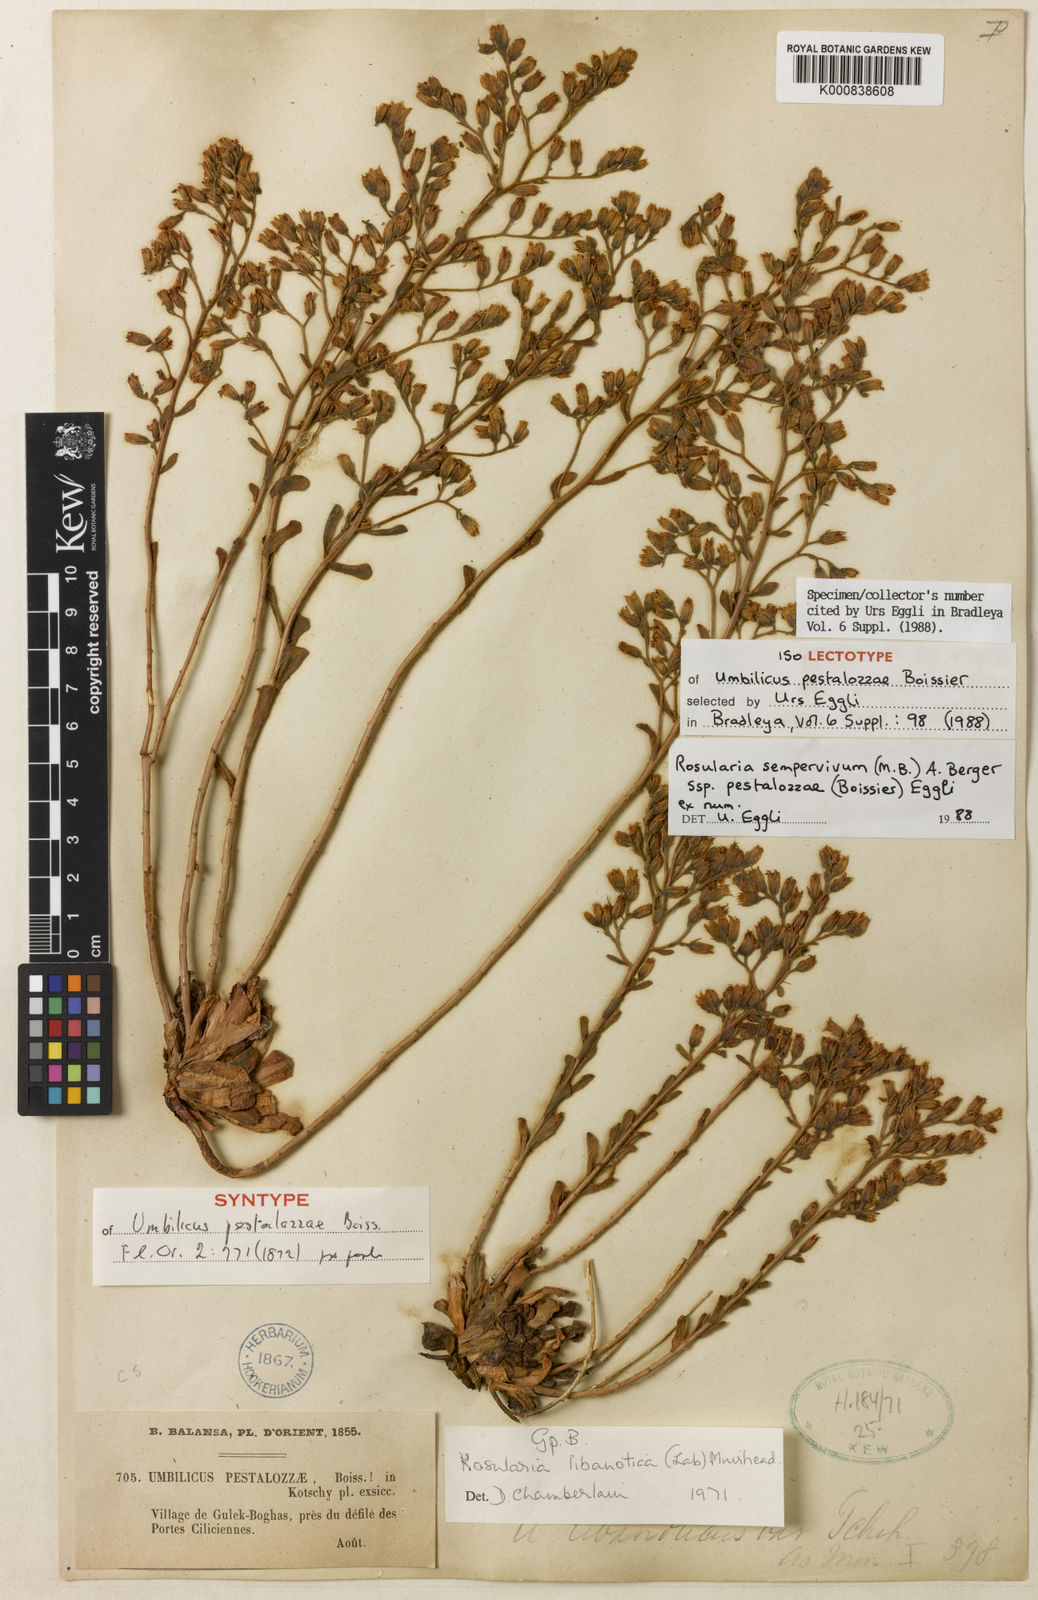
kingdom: Plantae
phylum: Tracheophyta
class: Magnoliopsida
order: Saxifragales
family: Crassulaceae
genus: Rosularia
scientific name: Rosularia sempervivum
